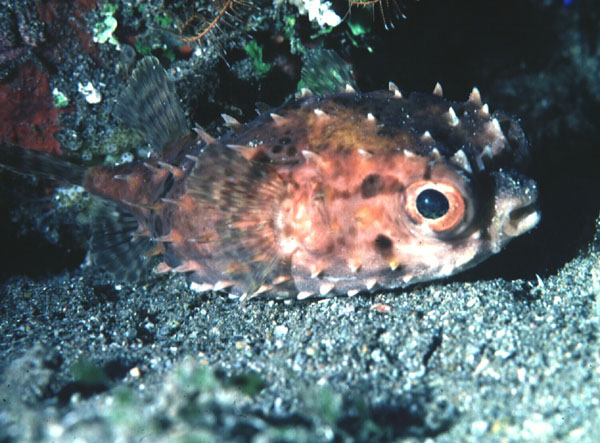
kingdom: Animalia
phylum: Chordata
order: Tetraodontiformes
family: Diodontidae
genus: Cyclichthys
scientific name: Cyclichthys orbicularis
